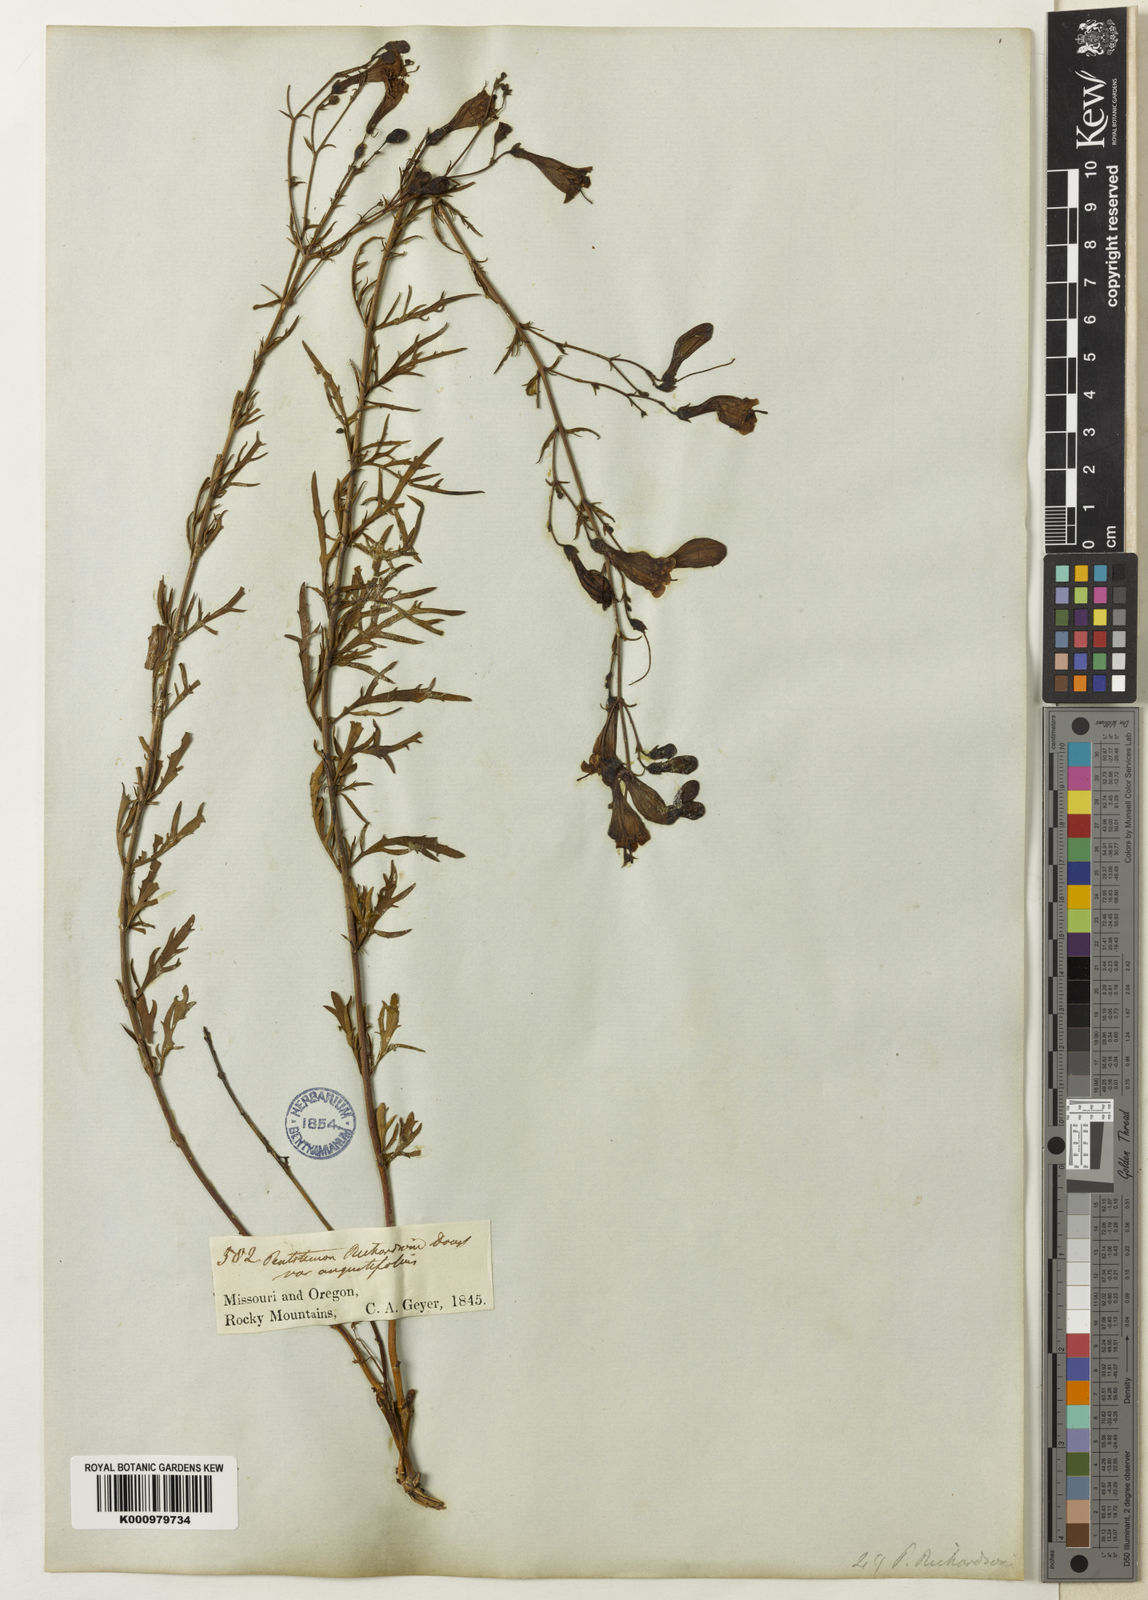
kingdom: Plantae
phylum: Tracheophyta
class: Magnoliopsida
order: Lamiales
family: Plantaginaceae
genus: Penstemon
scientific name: Penstemon triphyllus
